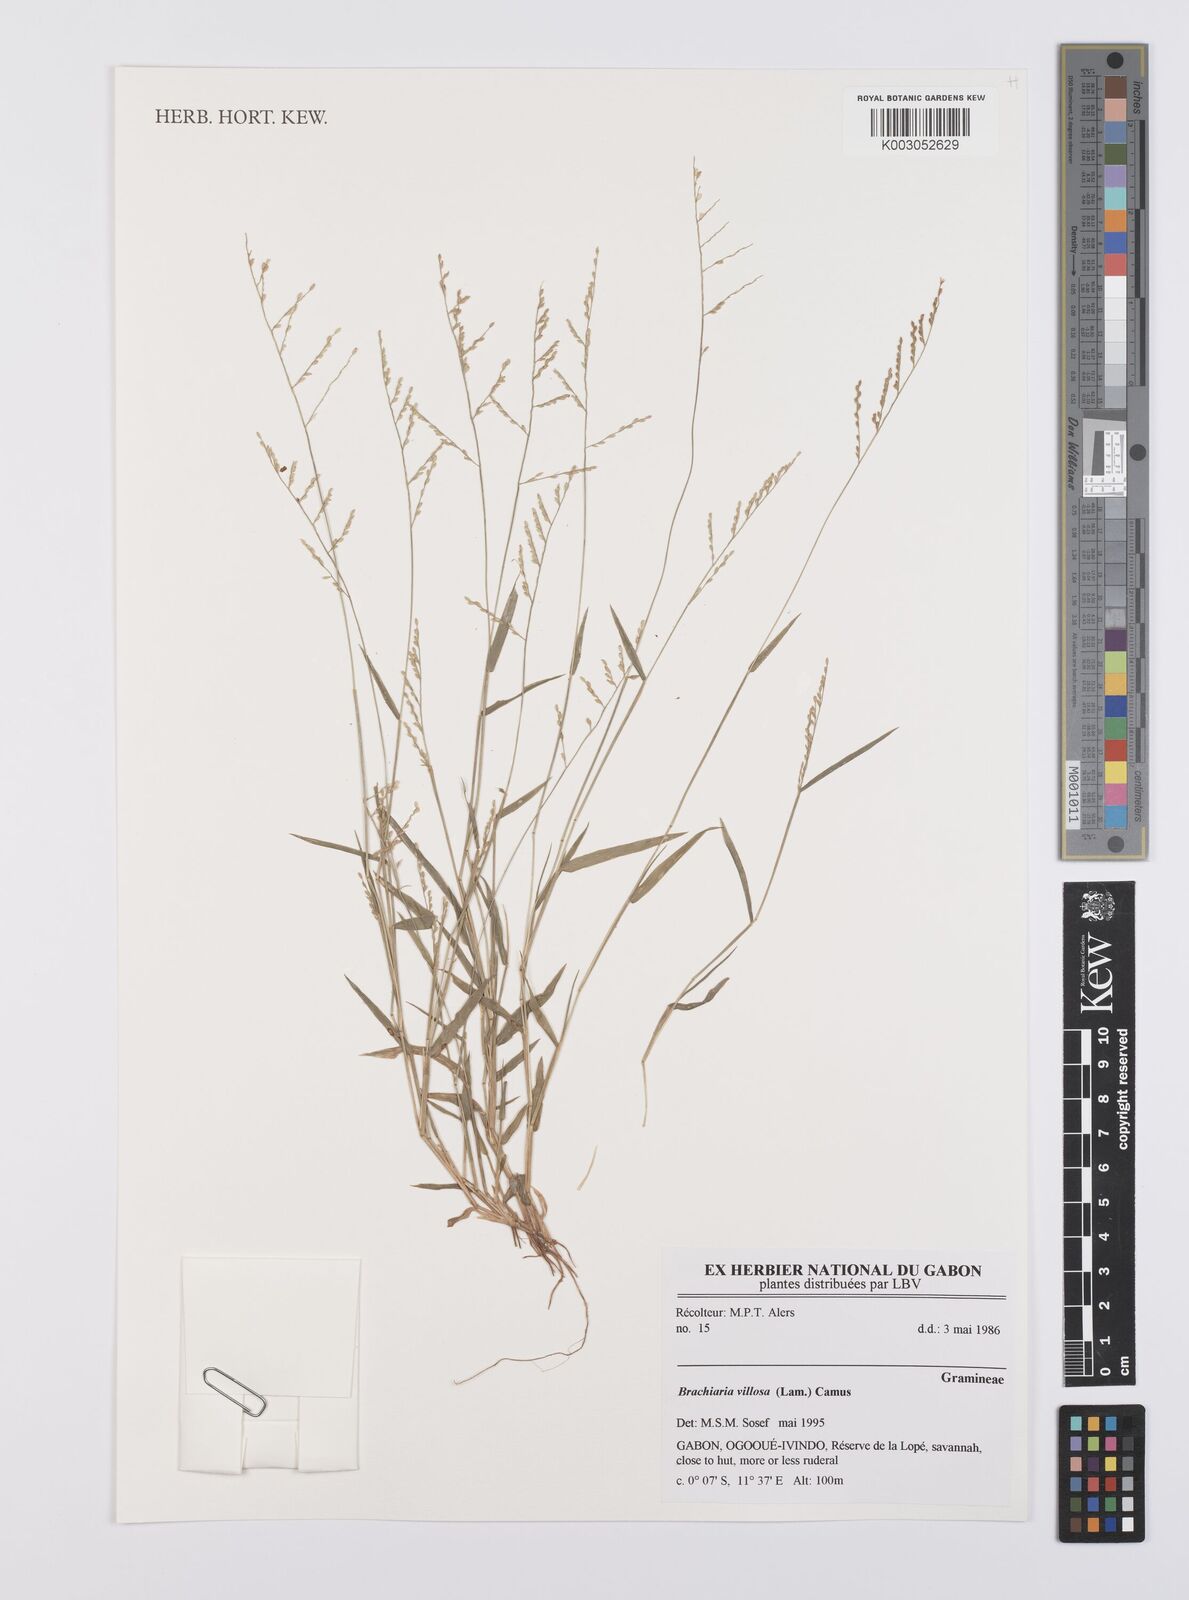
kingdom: Plantae
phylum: Tracheophyta
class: Liliopsida
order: Poales
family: Poaceae
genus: Urochloa
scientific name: Urochloa villosa
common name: Hairy signalgrass
